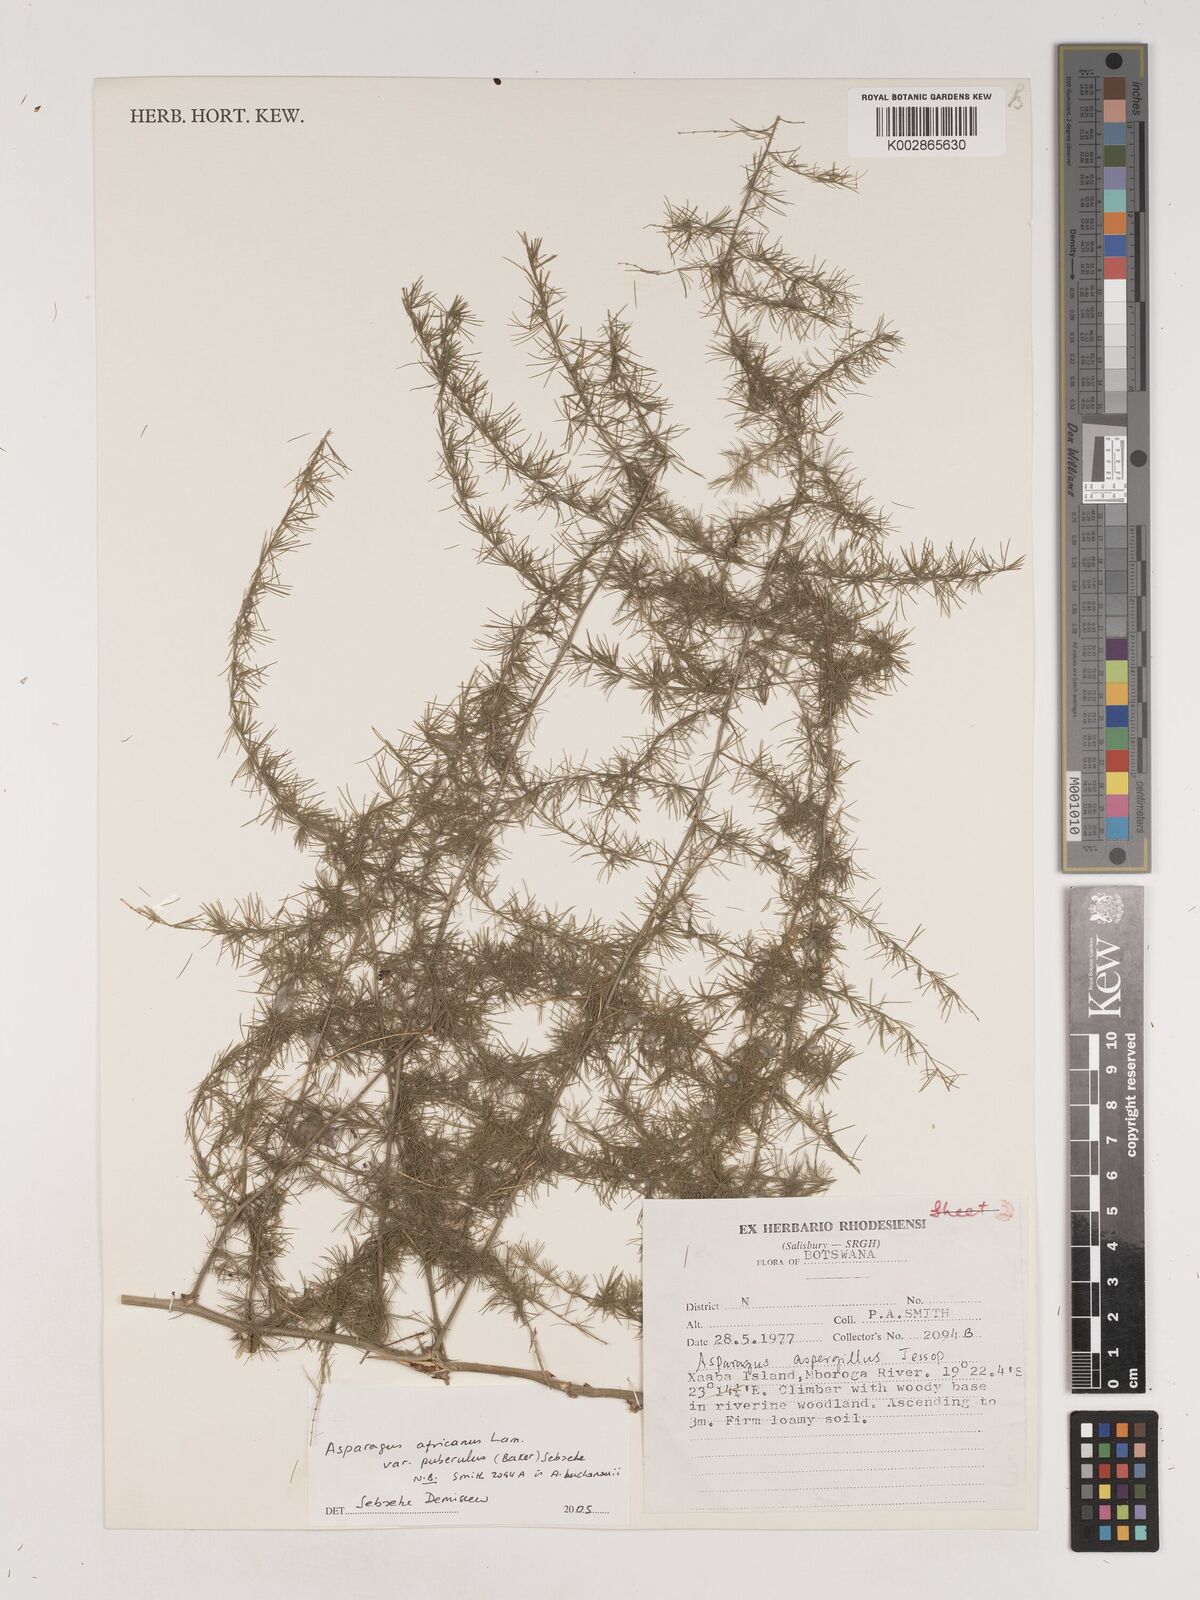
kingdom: Plantae
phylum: Tracheophyta
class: Liliopsida
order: Asparagales
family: Asparagaceae
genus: Asparagus
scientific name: Asparagus africanus
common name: Asparagus-fern
